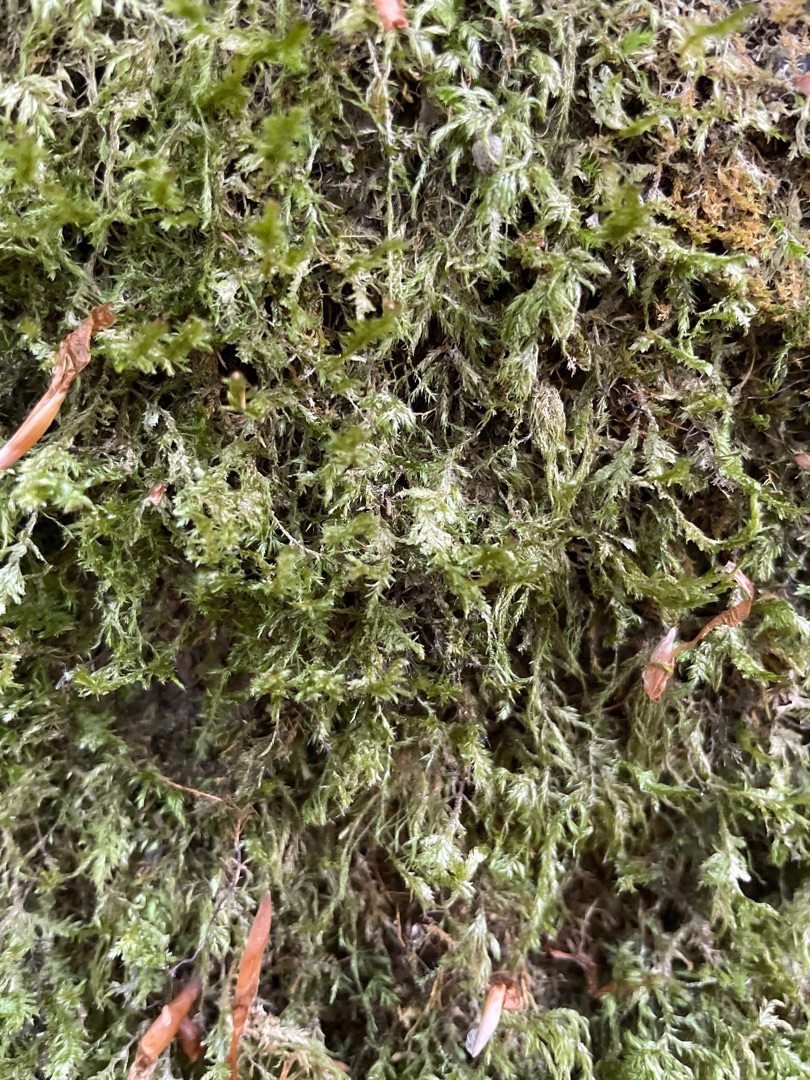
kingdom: Plantae
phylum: Bryophyta
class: Bryopsida
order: Hypnales
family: Neckeraceae
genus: Alleniella
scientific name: Alleniella complanata
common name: Almindelig fladmos
